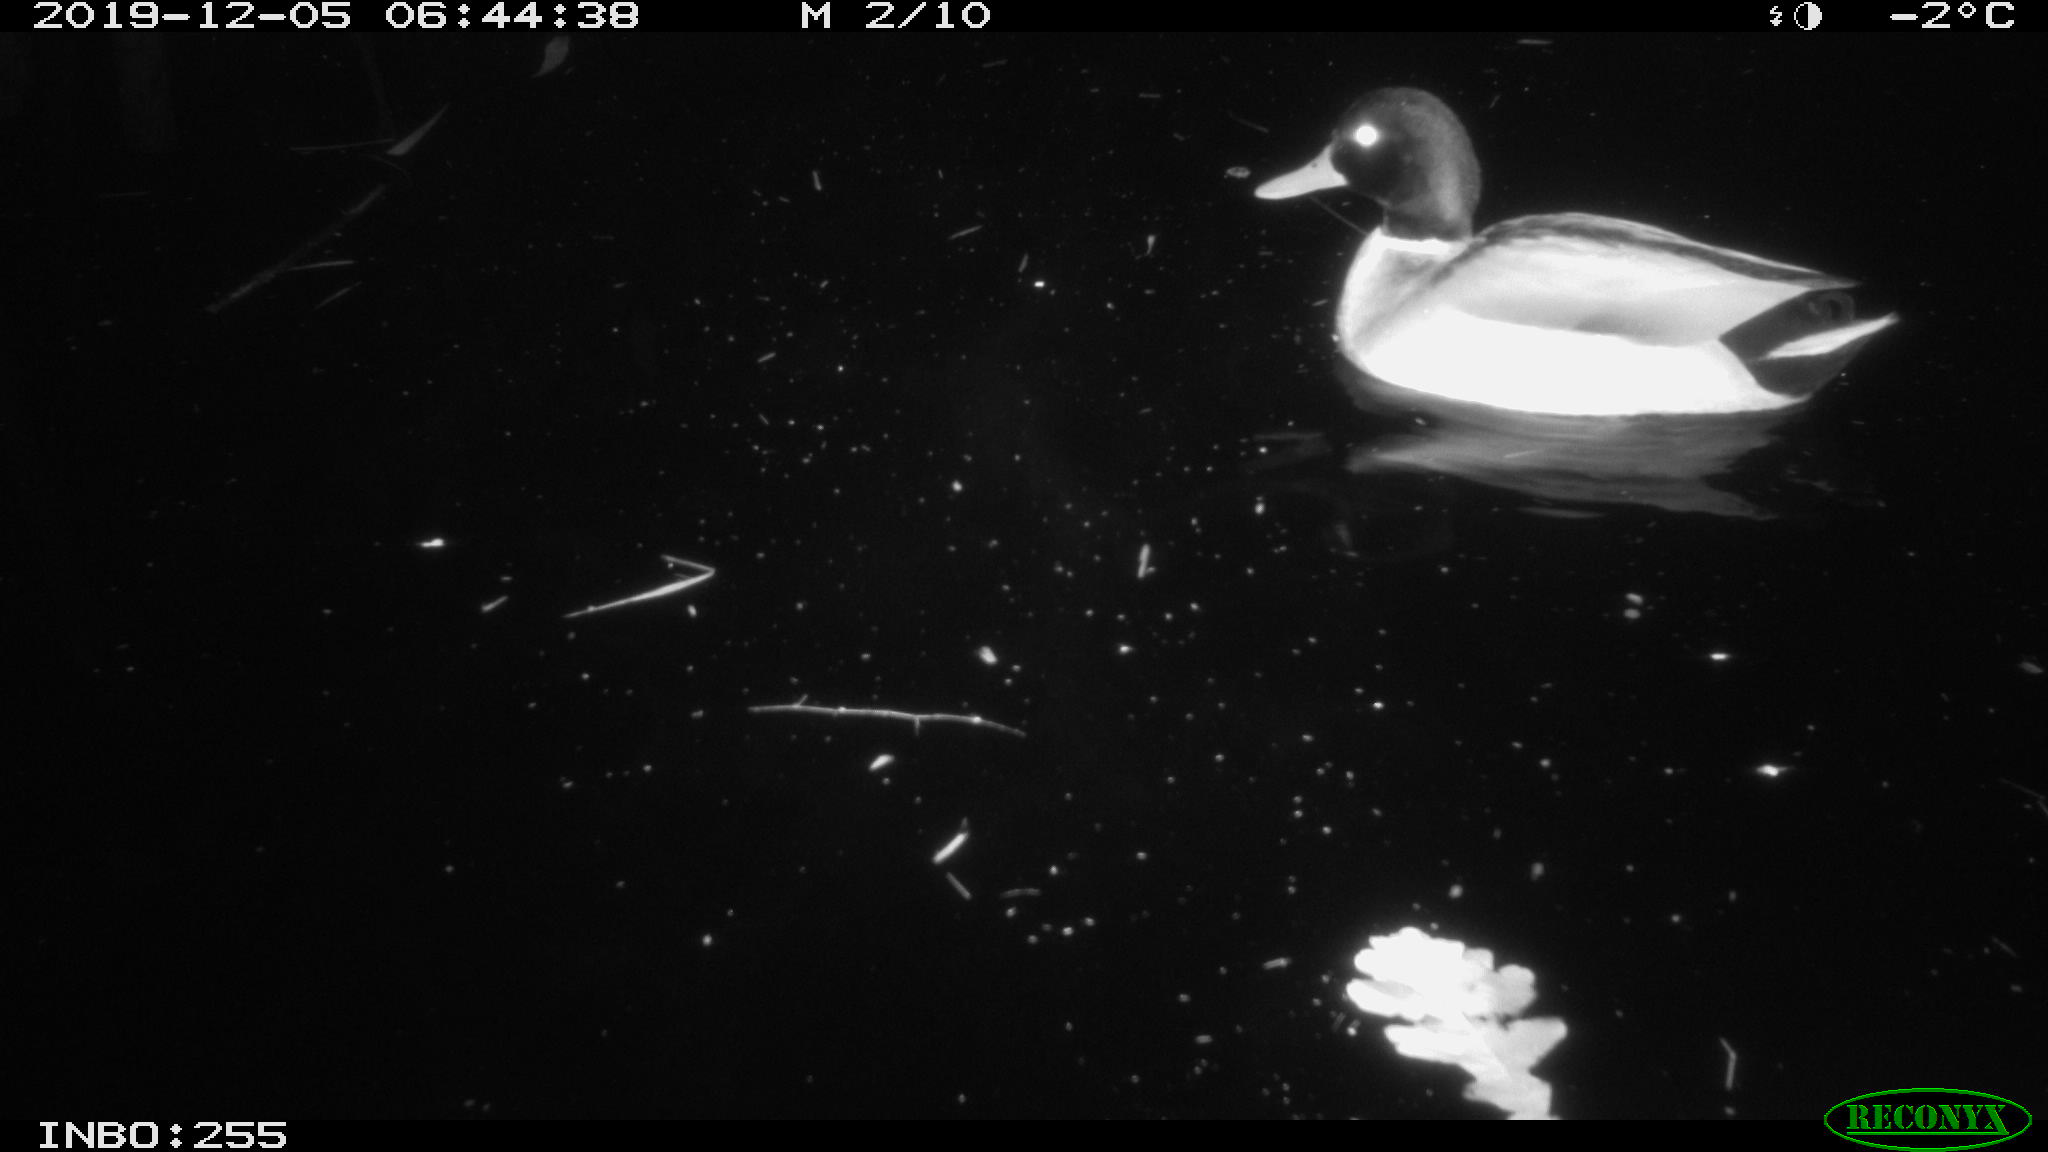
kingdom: Animalia
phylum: Chordata
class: Aves
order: Anseriformes
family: Anatidae
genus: Anas
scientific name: Anas platyrhynchos
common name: Mallard
